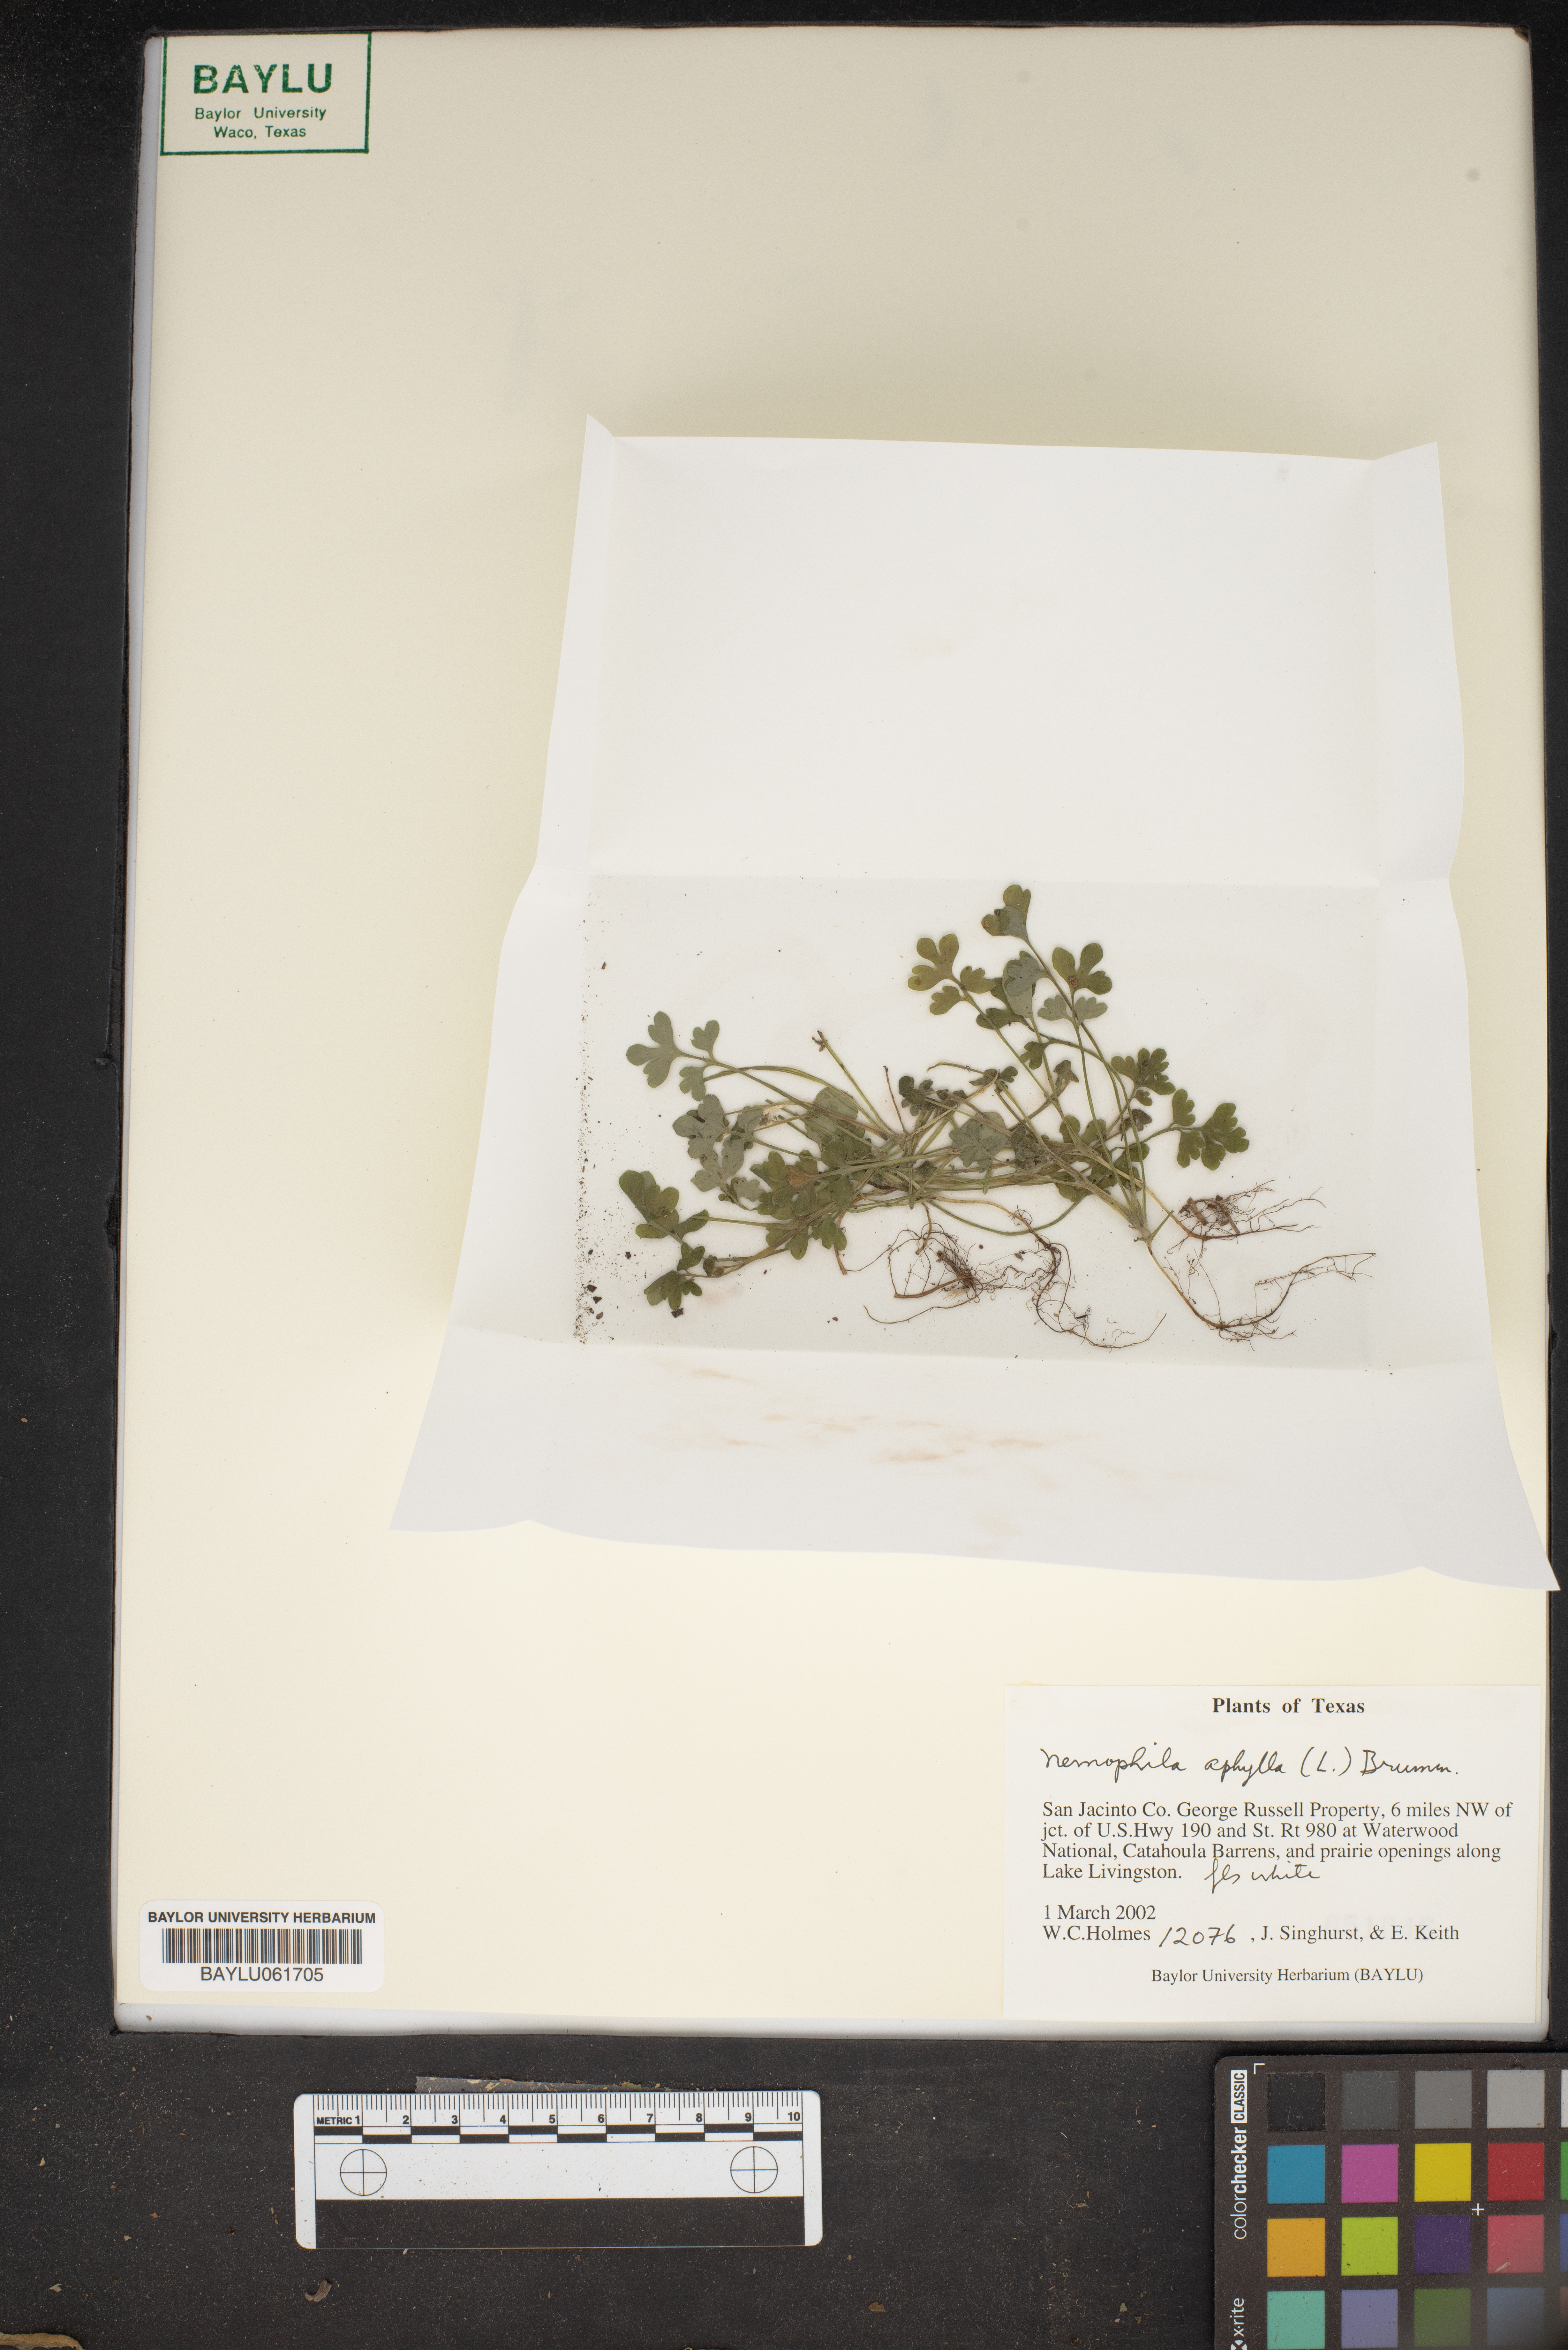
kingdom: Plantae
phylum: Tracheophyta
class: Magnoliopsida
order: Boraginales
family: Hydrophyllaceae
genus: Nemophila
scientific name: Nemophila aphylla
